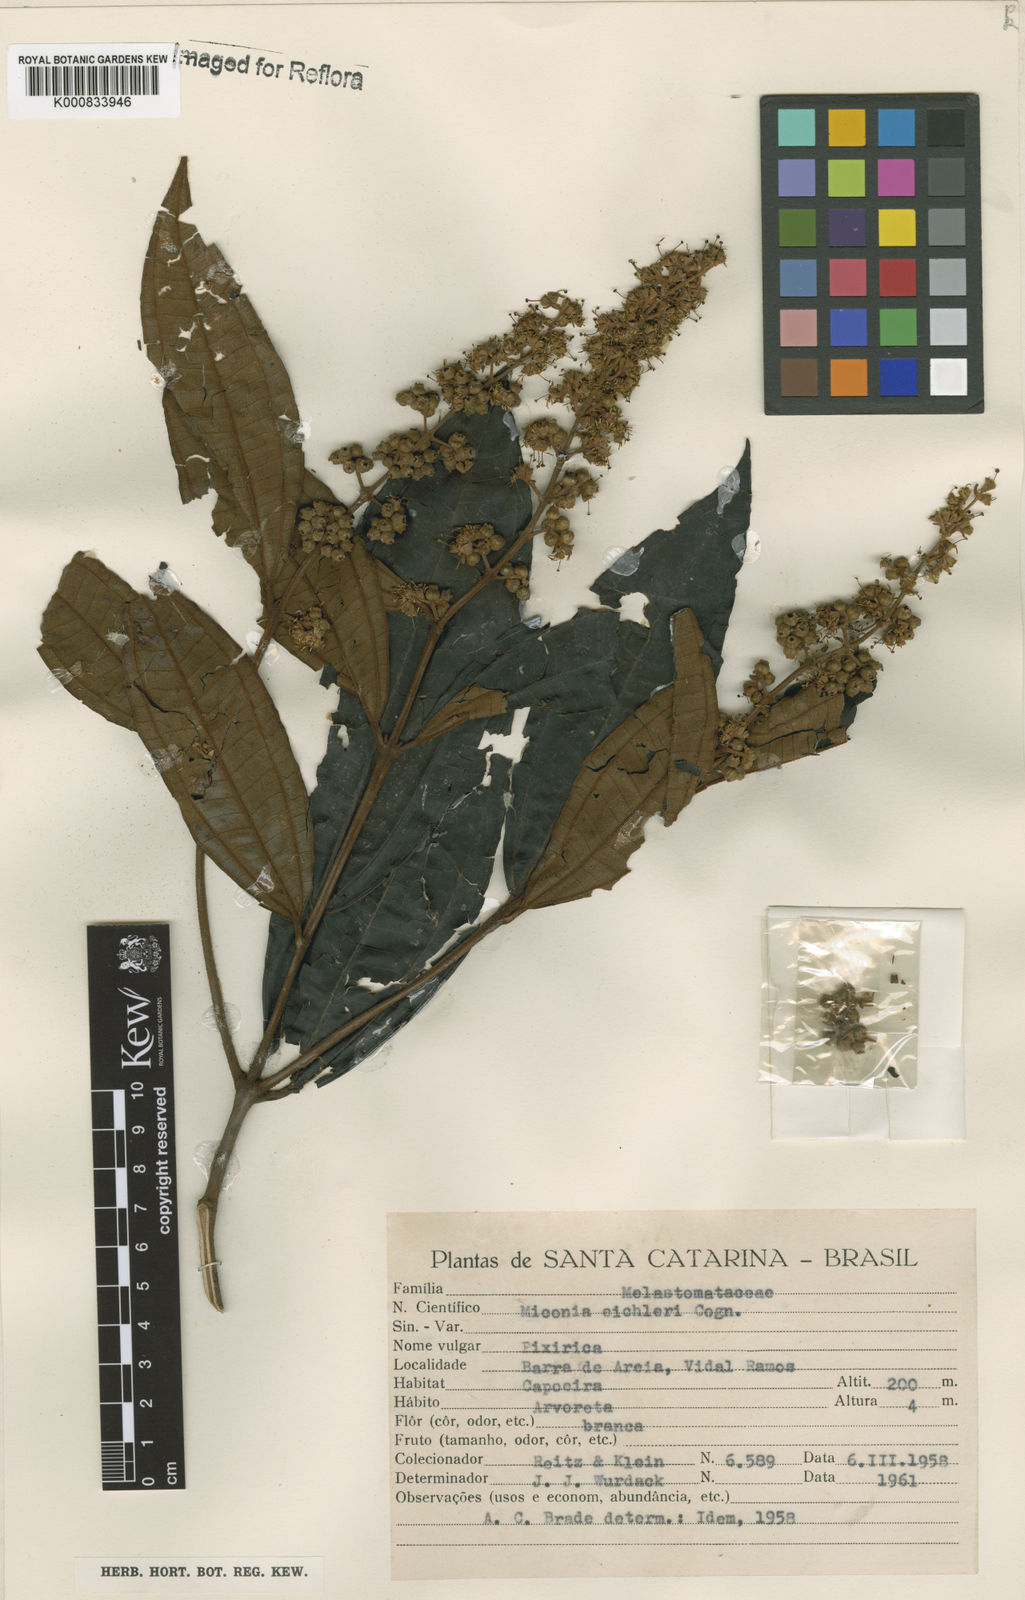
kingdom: Plantae
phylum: Tracheophyta
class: Magnoliopsida
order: Myrtales
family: Melastomataceae
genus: Miconia
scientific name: Miconia valtheri
